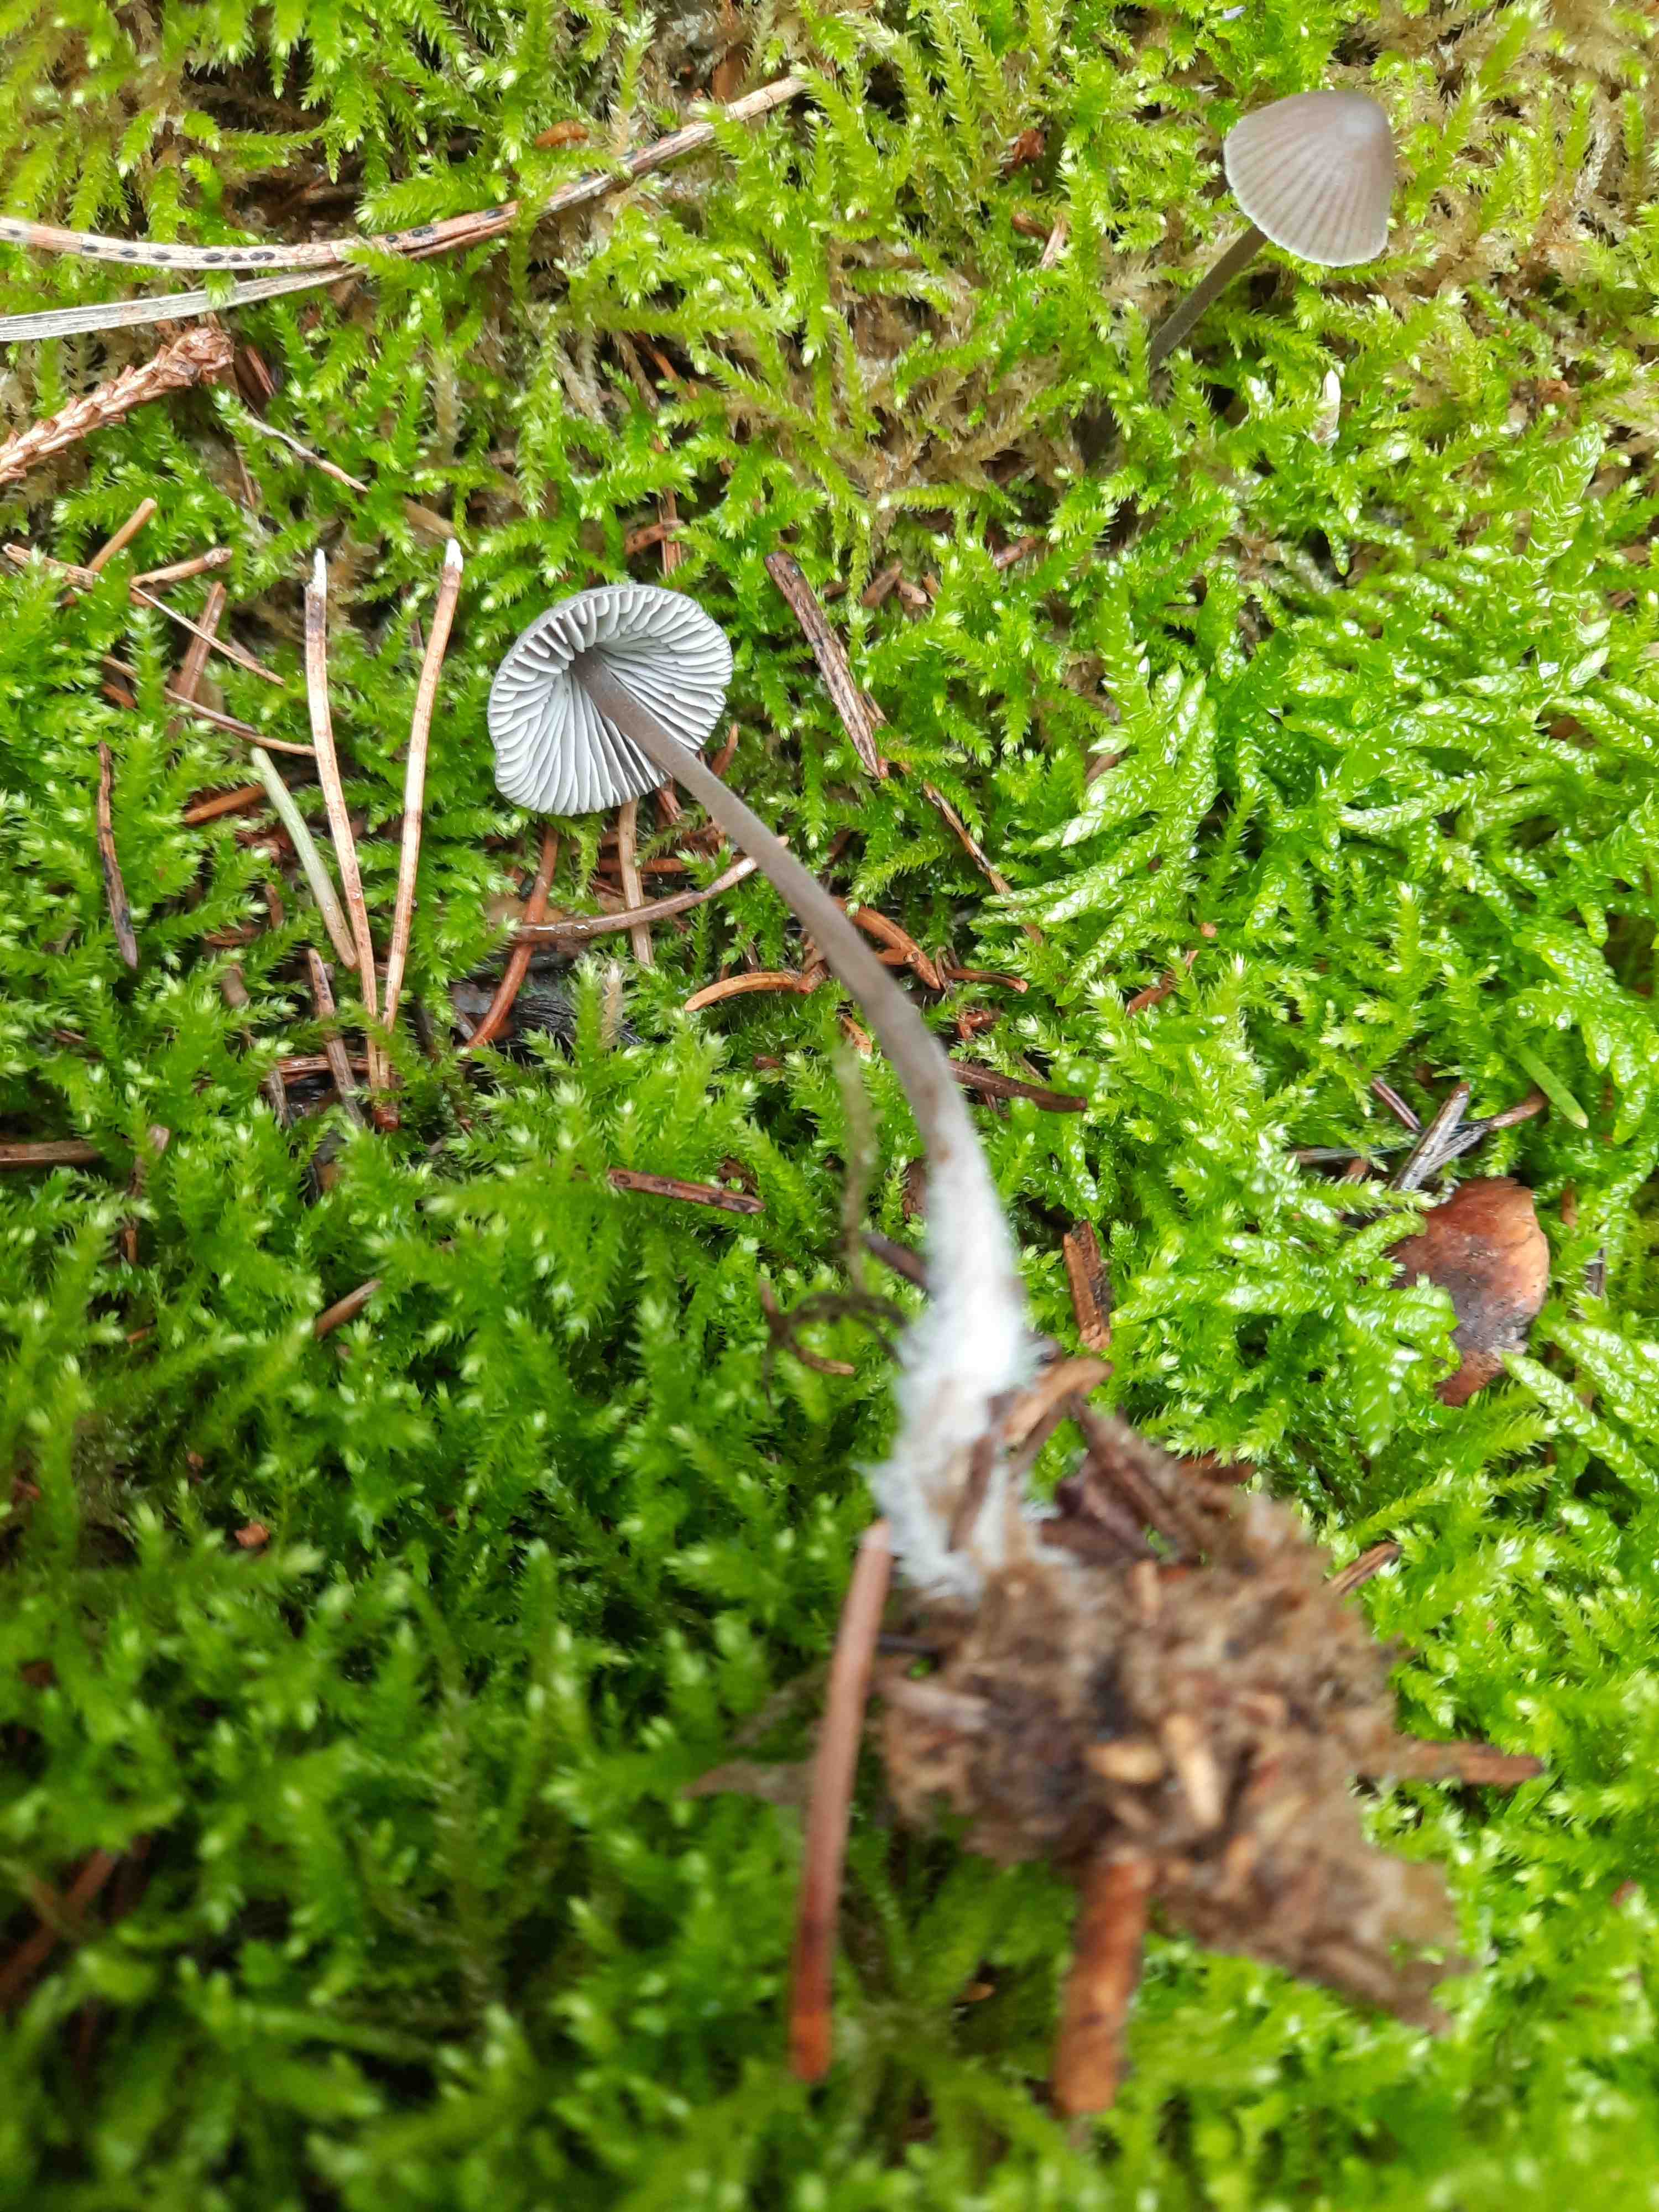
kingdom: Fungi
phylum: Basidiomycota
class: Agaricomycetes
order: Agaricales
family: Mycenaceae
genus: Mycena
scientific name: Mycena
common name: huesvamp
